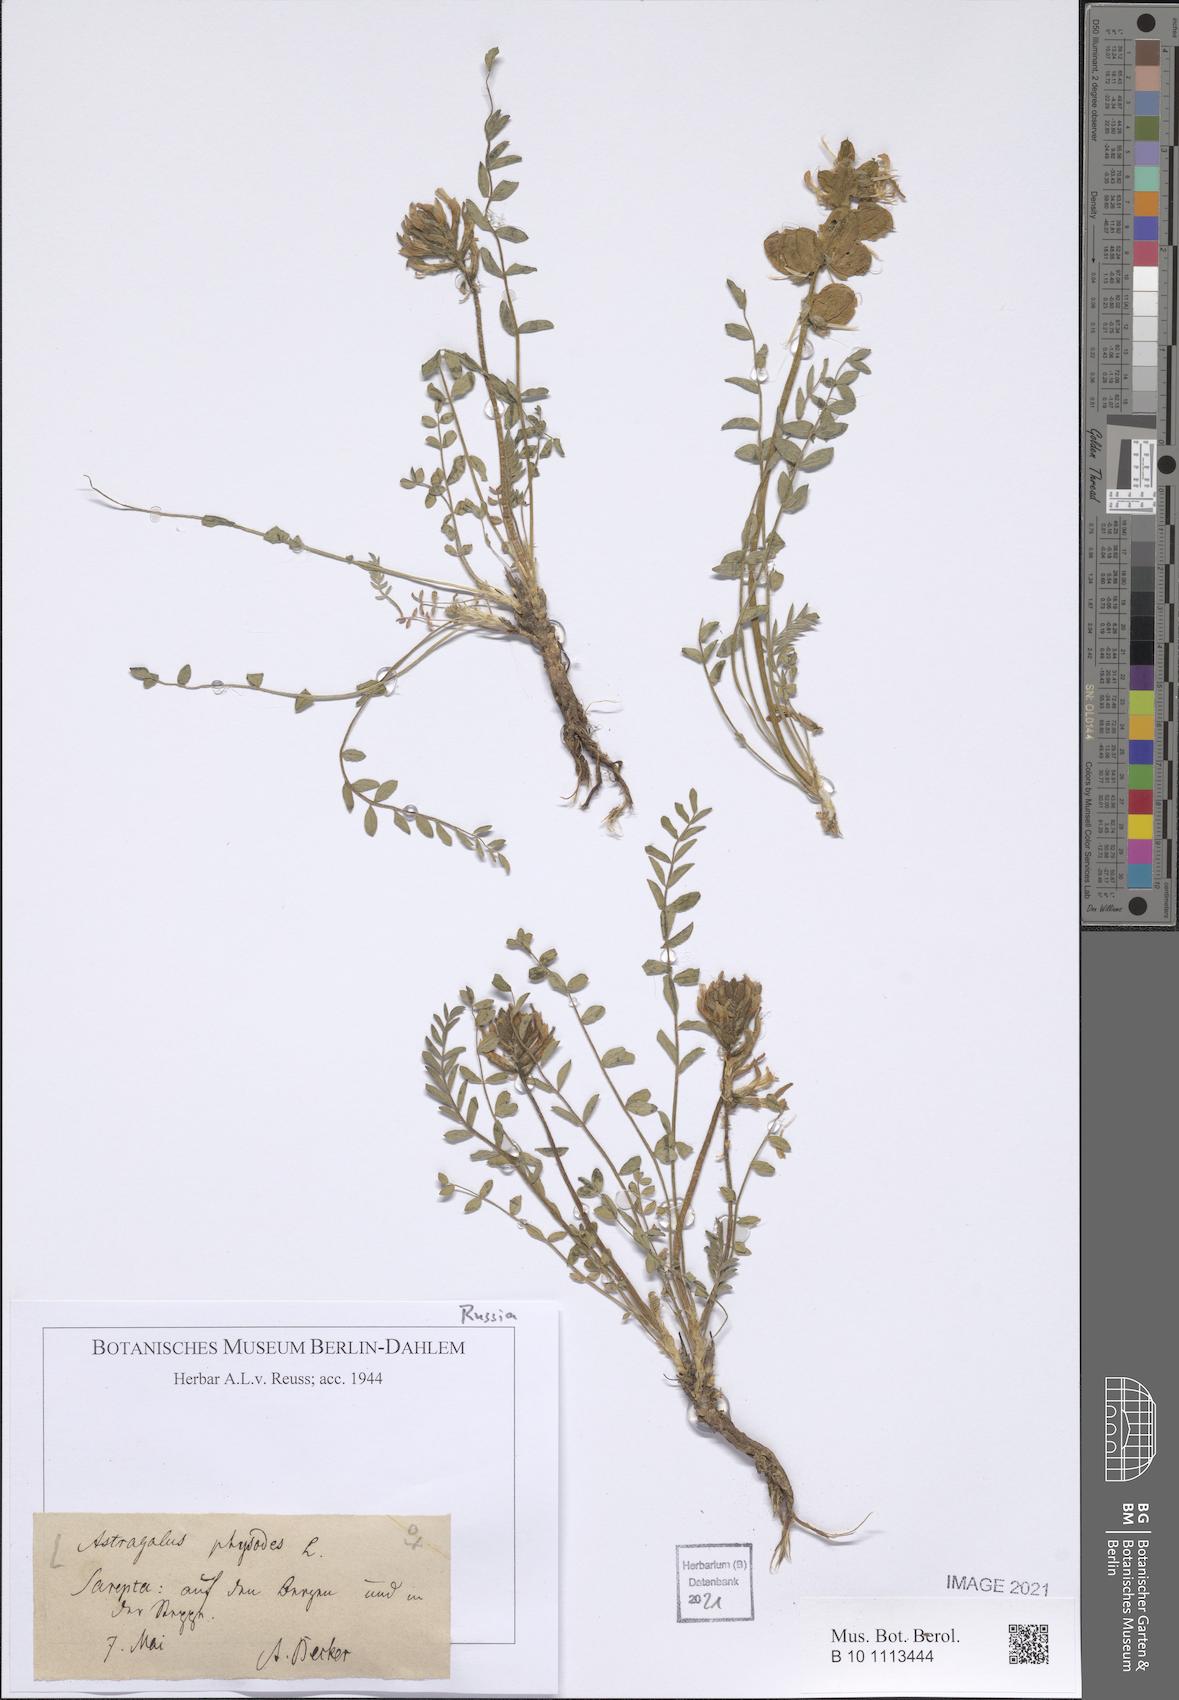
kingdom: Plantae
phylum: Tracheophyta
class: Magnoliopsida
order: Fabales
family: Fabaceae
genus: Astragalus
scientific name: Astragalus physodes
